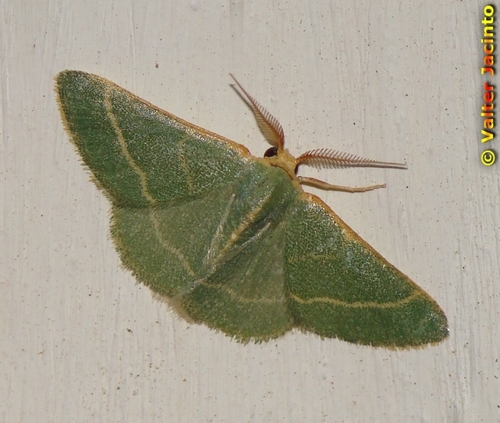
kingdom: Animalia
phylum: Arthropoda
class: Insecta
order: Lepidoptera
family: Geometridae
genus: Microloxia
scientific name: Microloxia herbaria
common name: Herb emerald
